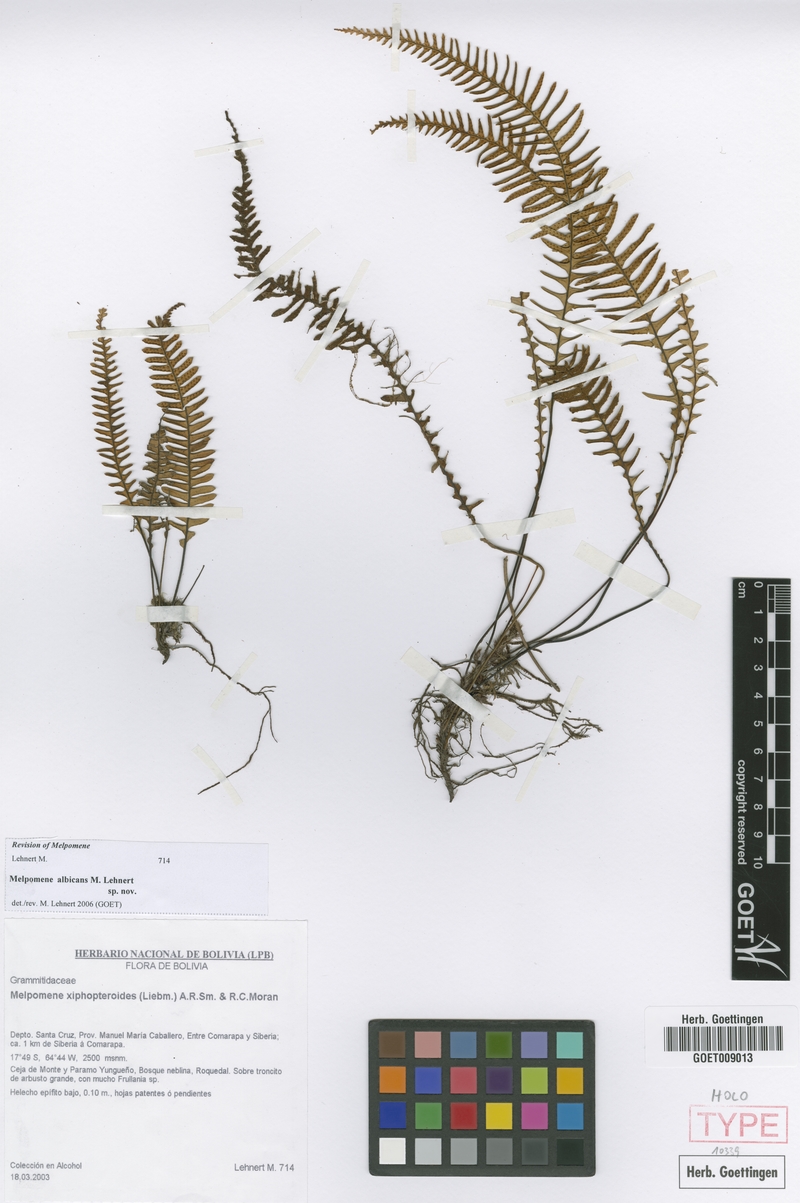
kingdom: Plantae
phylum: Tracheophyta
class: Polypodiopsida
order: Polypodiales
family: Polypodiaceae
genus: Melpomene
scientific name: Melpomene albicans
